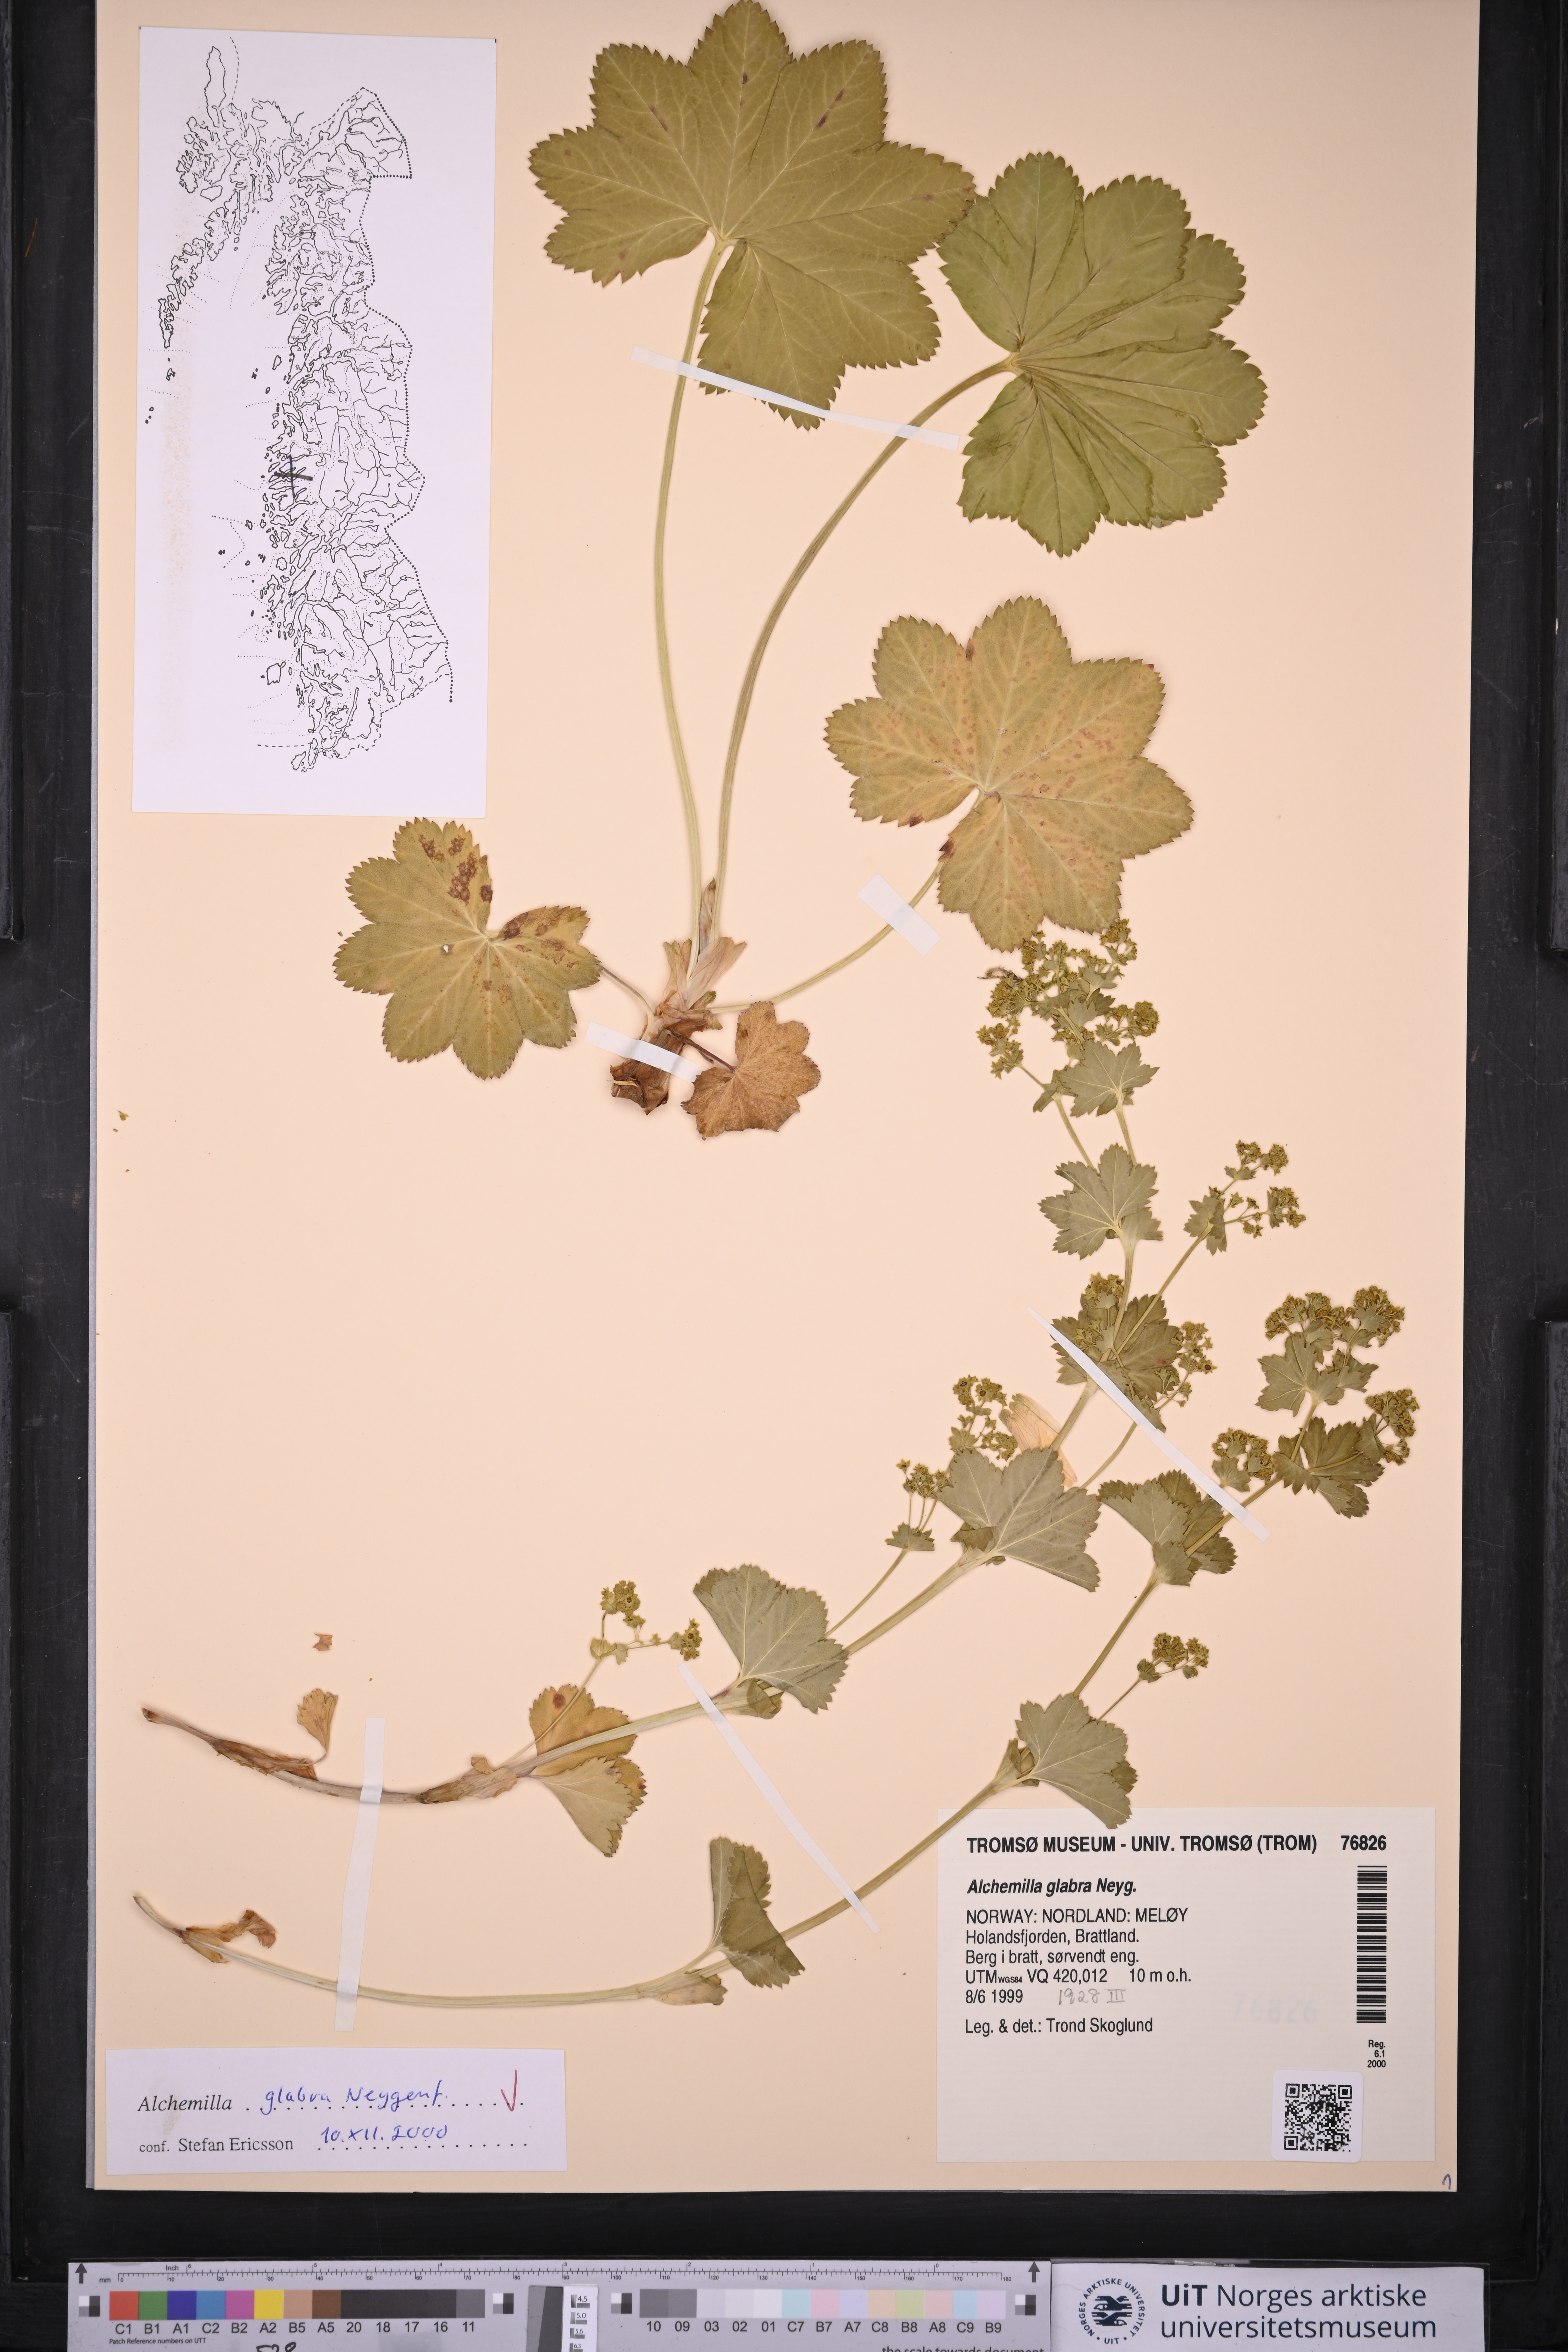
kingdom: Plantae
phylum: Tracheophyta
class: Magnoliopsida
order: Rosales
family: Rosaceae
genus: Alchemilla
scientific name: Alchemilla glabra
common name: Smooth lady's-mantle
